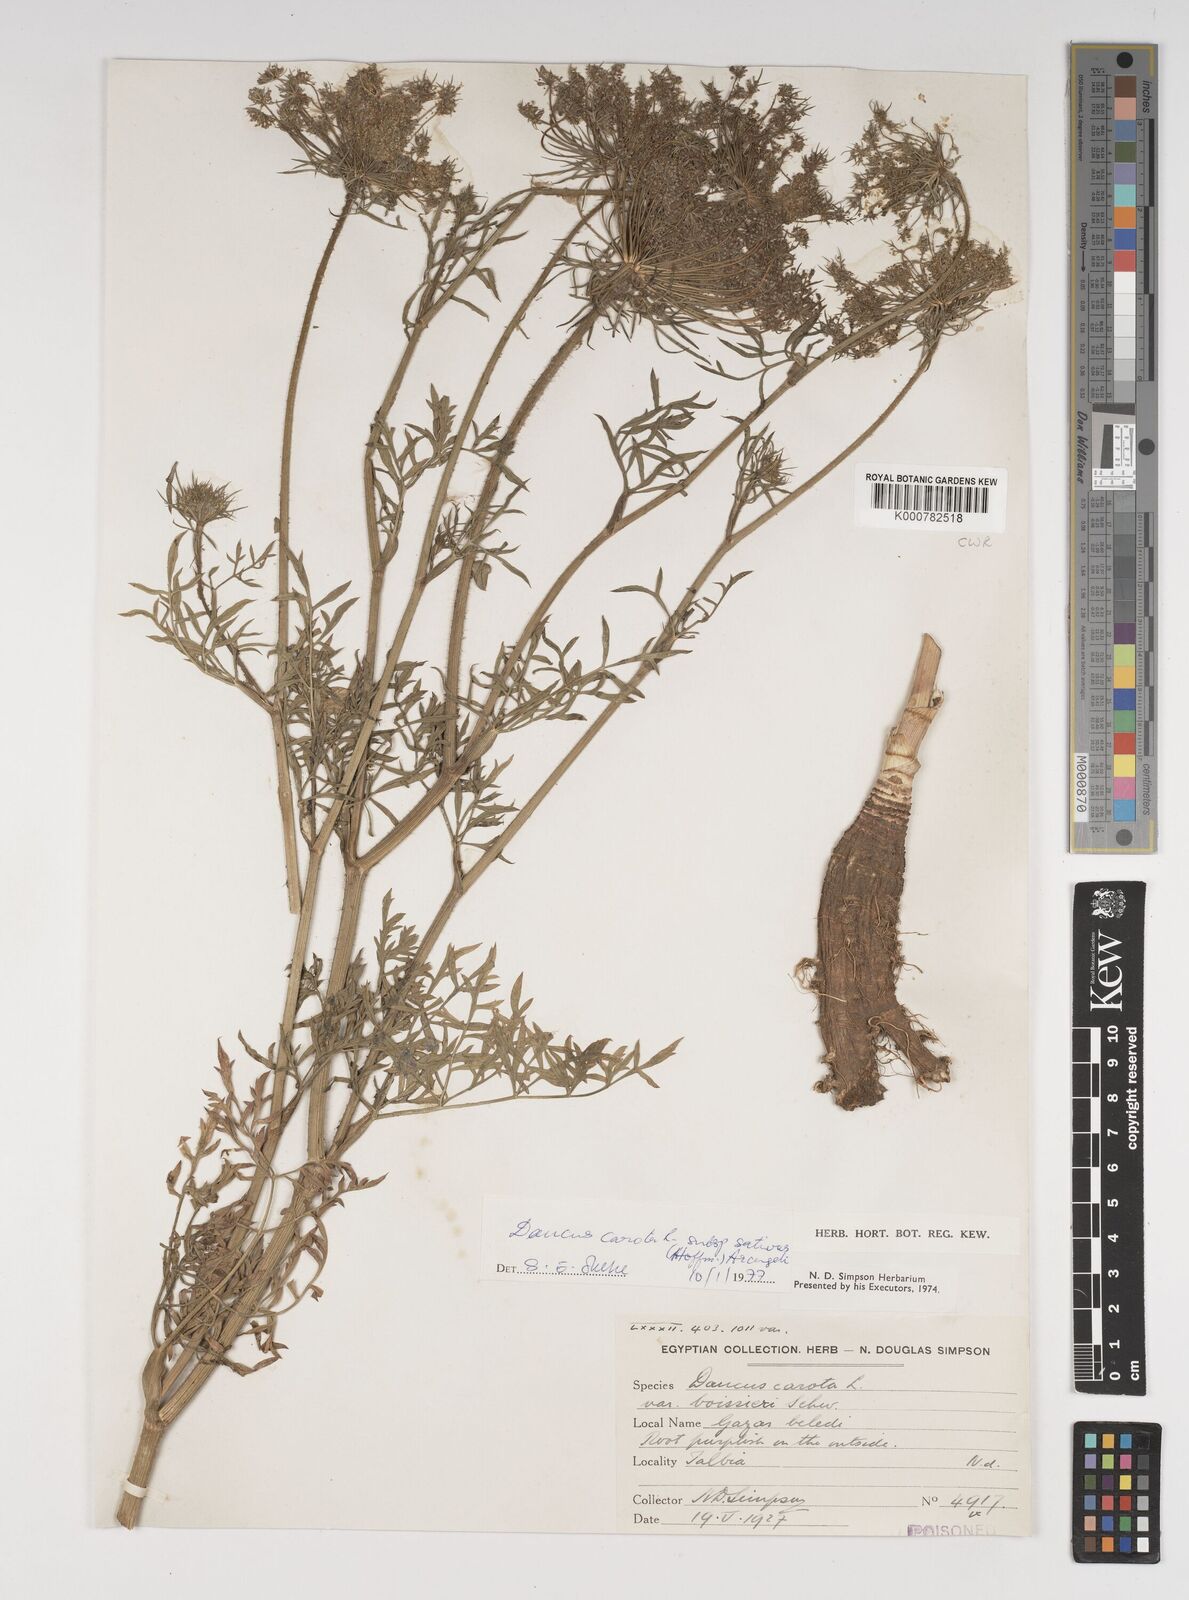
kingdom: Plantae
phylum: Tracheophyta
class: Magnoliopsida
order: Apiales
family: Apiaceae
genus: Daucus
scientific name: Daucus carota
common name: Wild carrot
